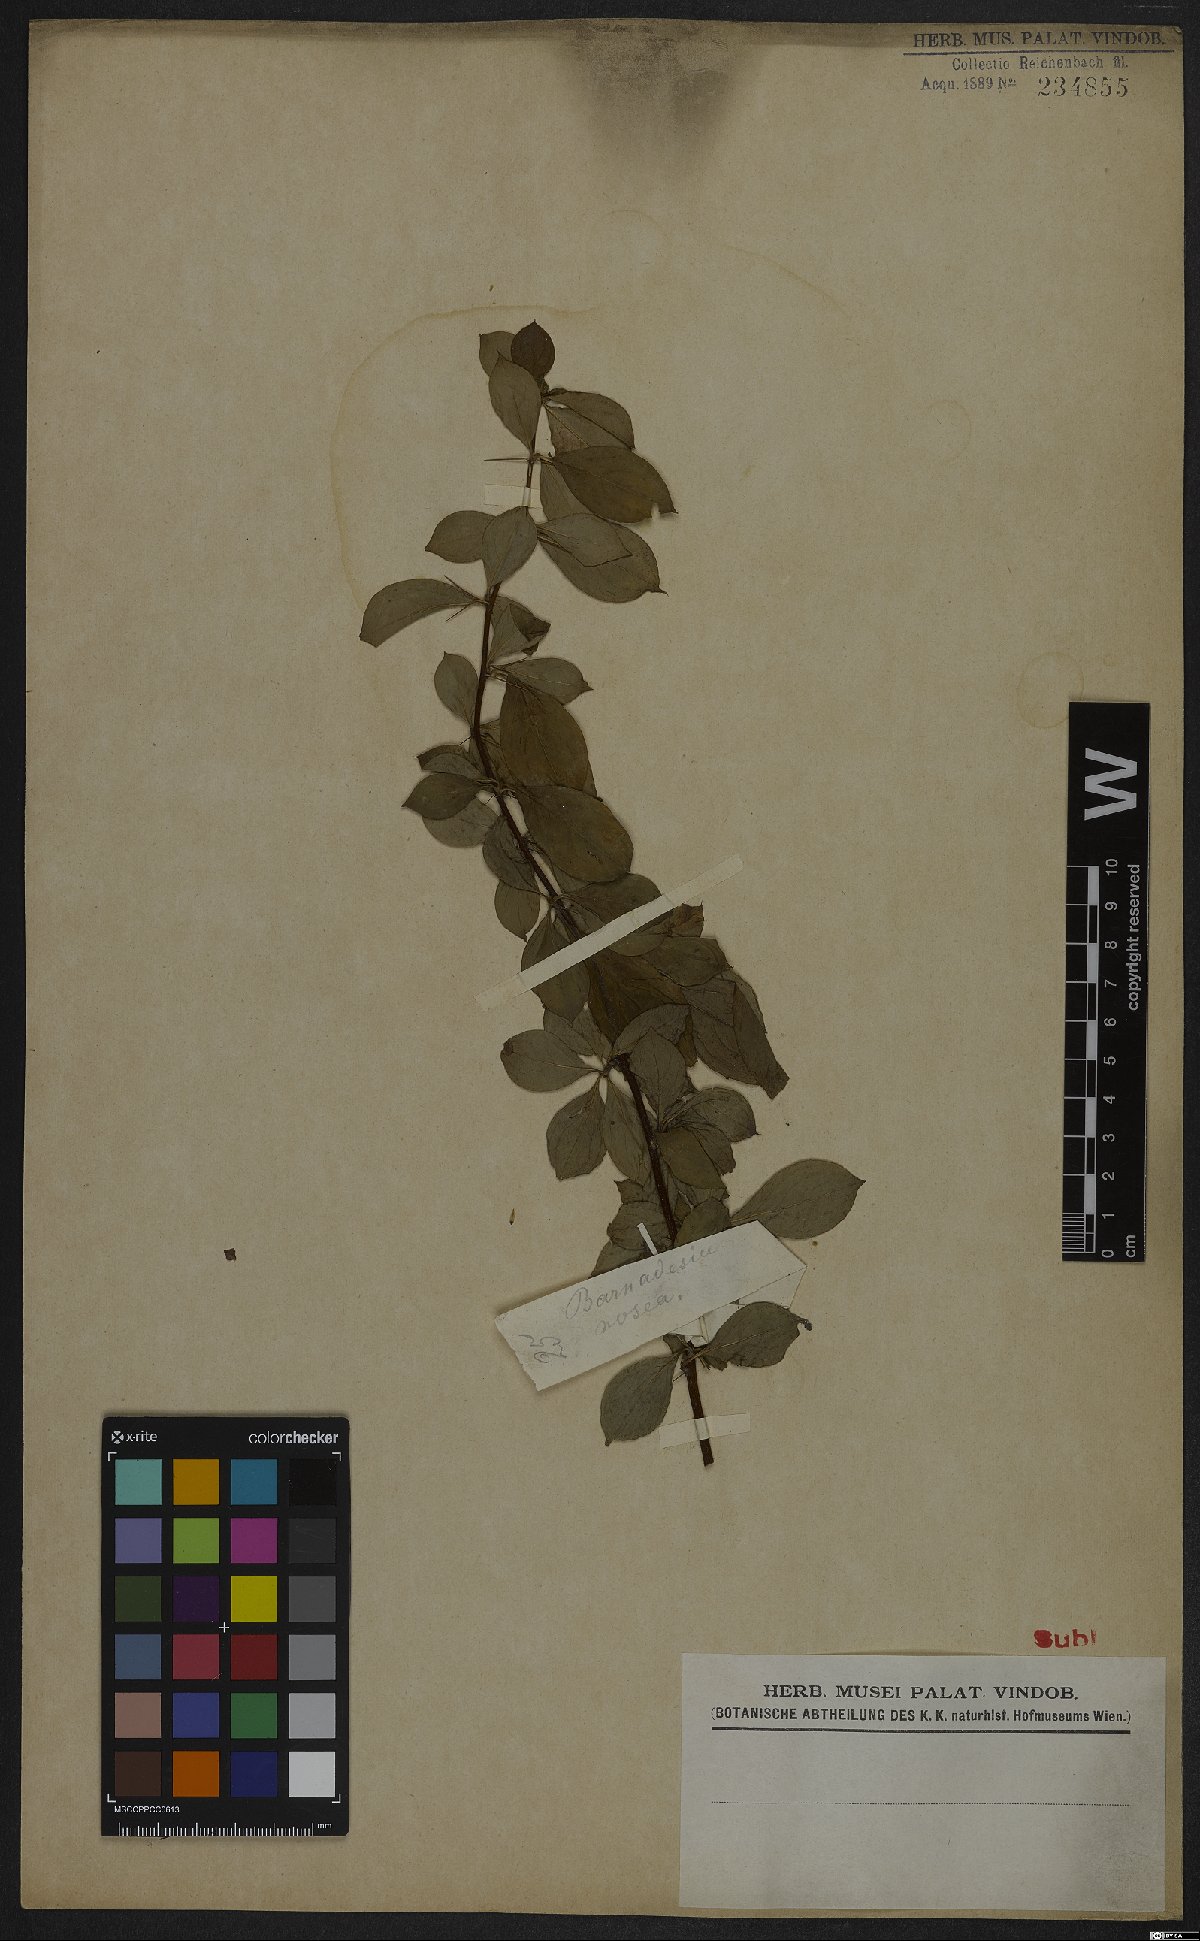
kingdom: Plantae
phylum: Tracheophyta
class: Magnoliopsida
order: Asterales
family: Asteraceae
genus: Barnadesia
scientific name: Barnadesia caryophylla
